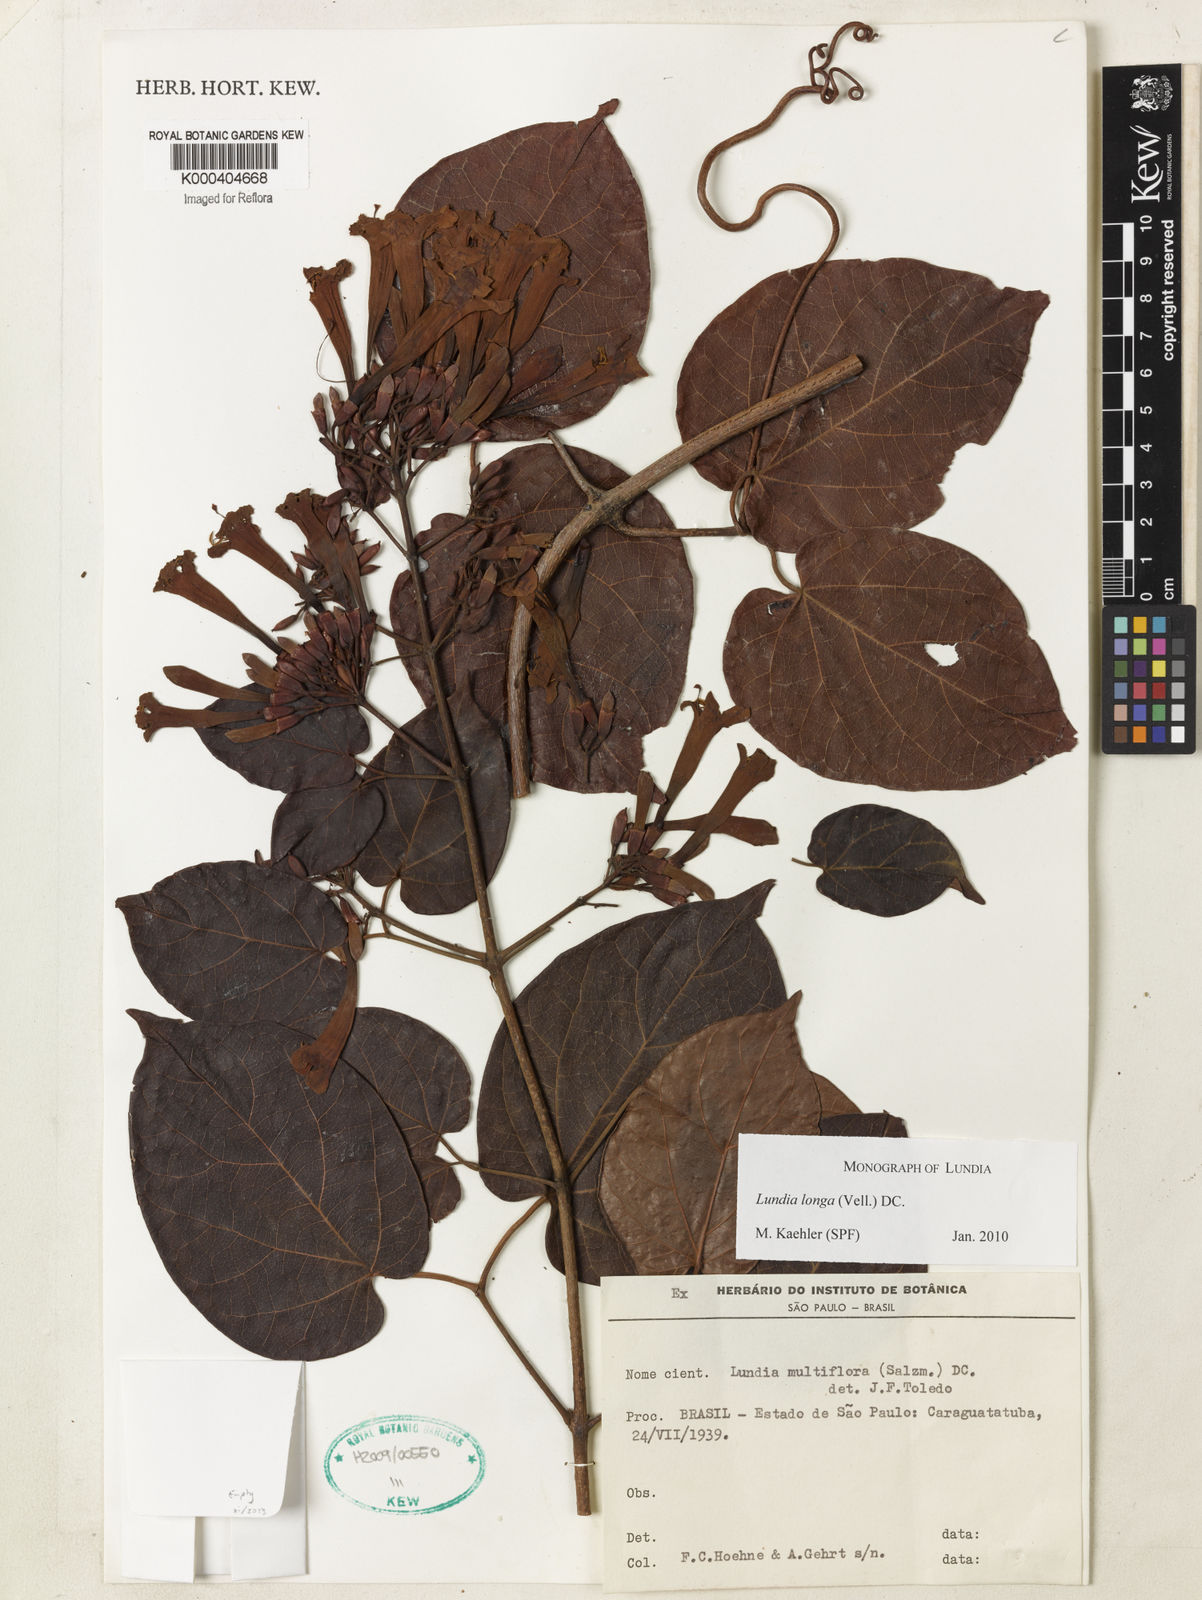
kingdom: Plantae
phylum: Tracheophyta
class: Magnoliopsida
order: Lamiales
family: Bignoniaceae
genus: Lundia
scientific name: Lundia longa
